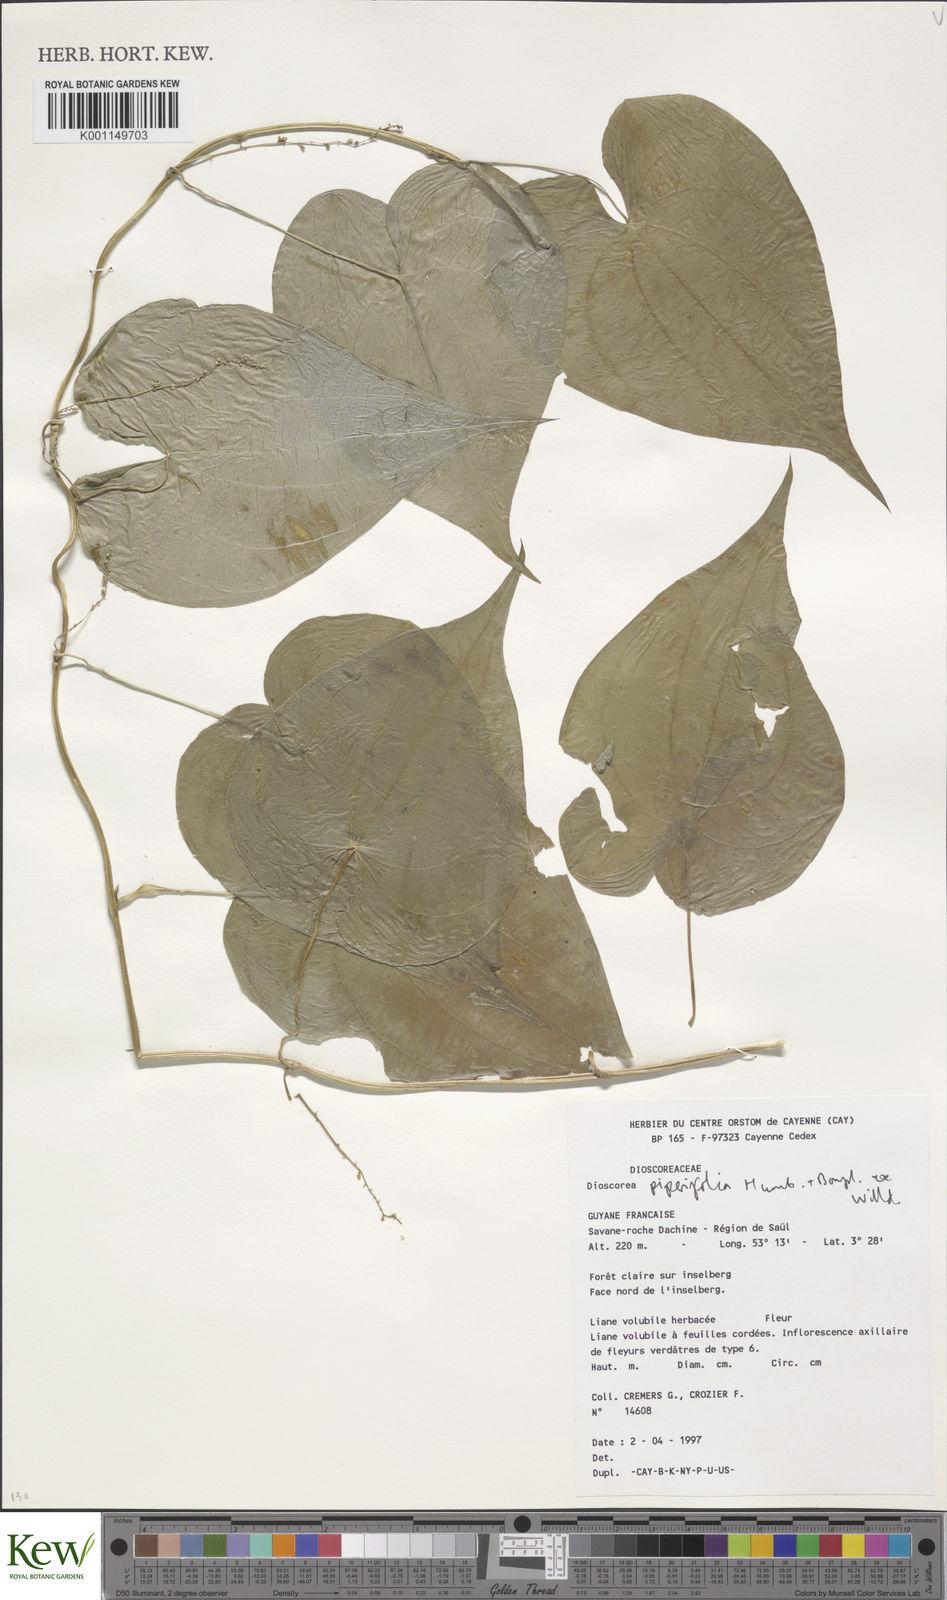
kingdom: Plantae
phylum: Tracheophyta
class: Liliopsida
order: Dioscoreales
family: Dioscoreaceae
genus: Dioscorea
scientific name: Dioscorea piperifolia
